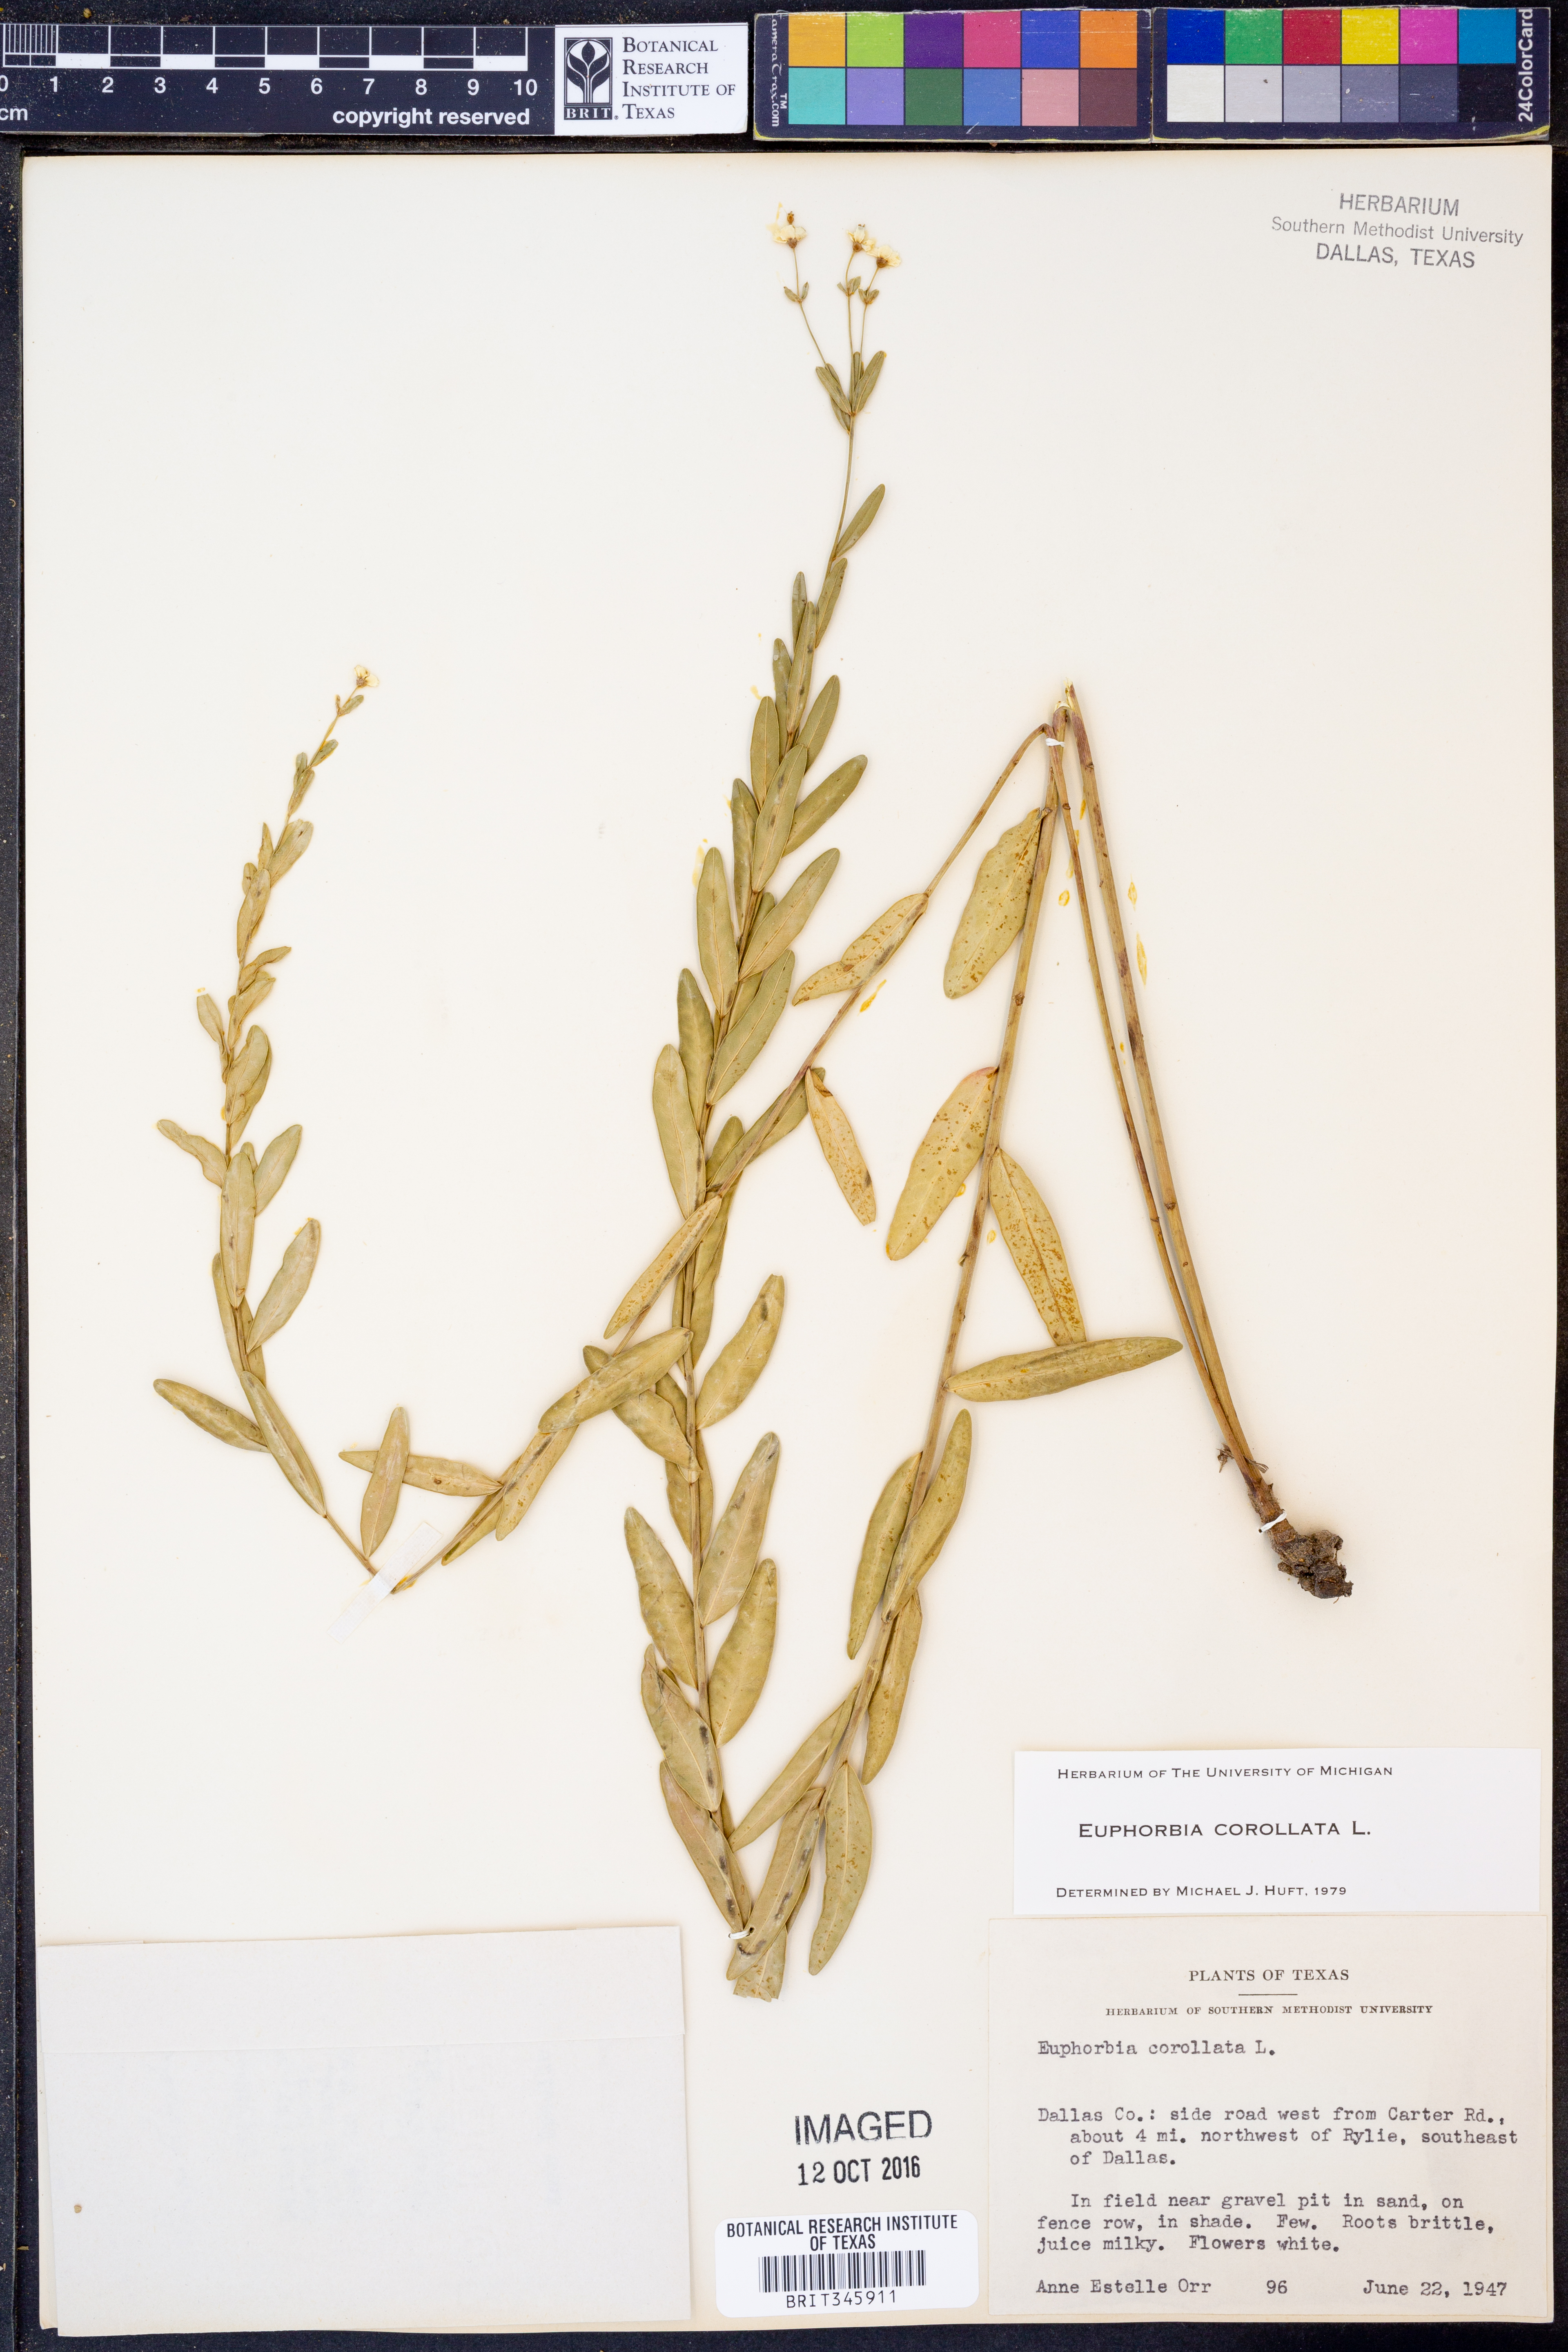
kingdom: Plantae
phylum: Tracheophyta
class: Magnoliopsida
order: Malpighiales
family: Euphorbiaceae
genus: Euphorbia
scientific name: Euphorbia corollata
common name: Flowering spurge
